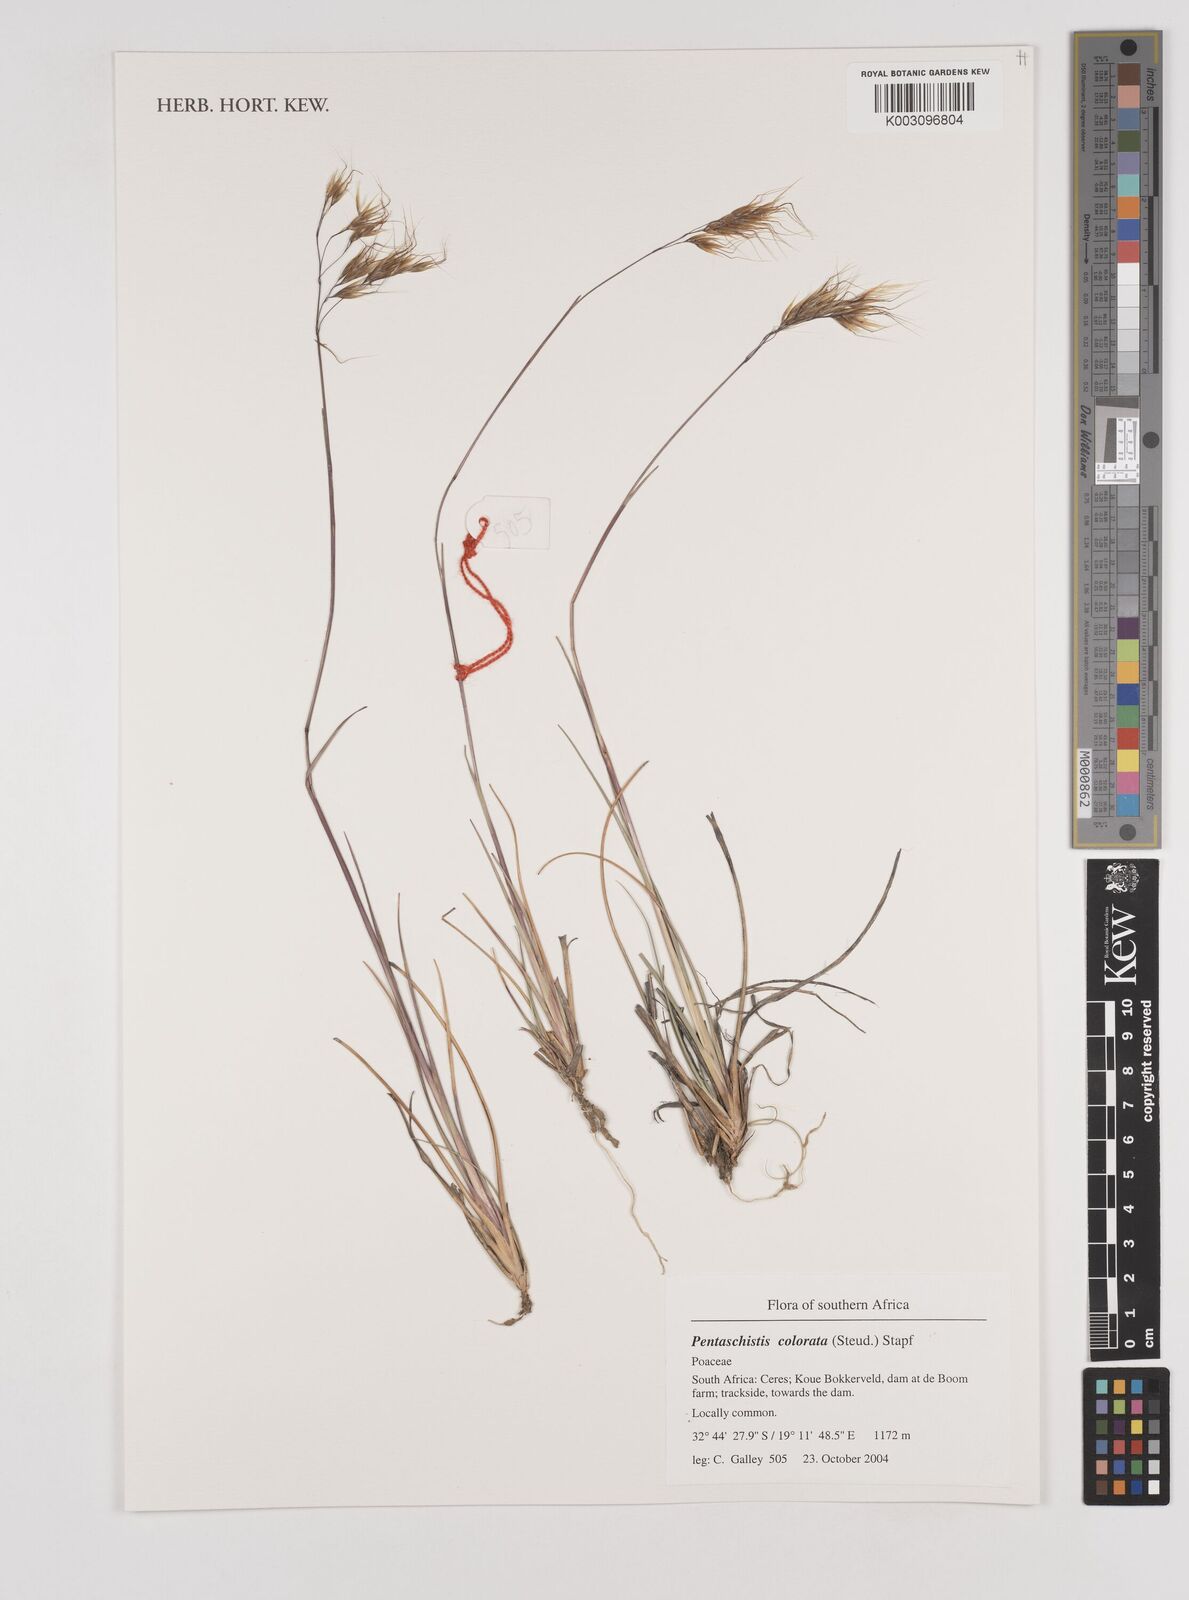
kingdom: Plantae
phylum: Tracheophyta
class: Liliopsida
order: Poales
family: Poaceae
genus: Pentameris
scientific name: Pentameris colorata
